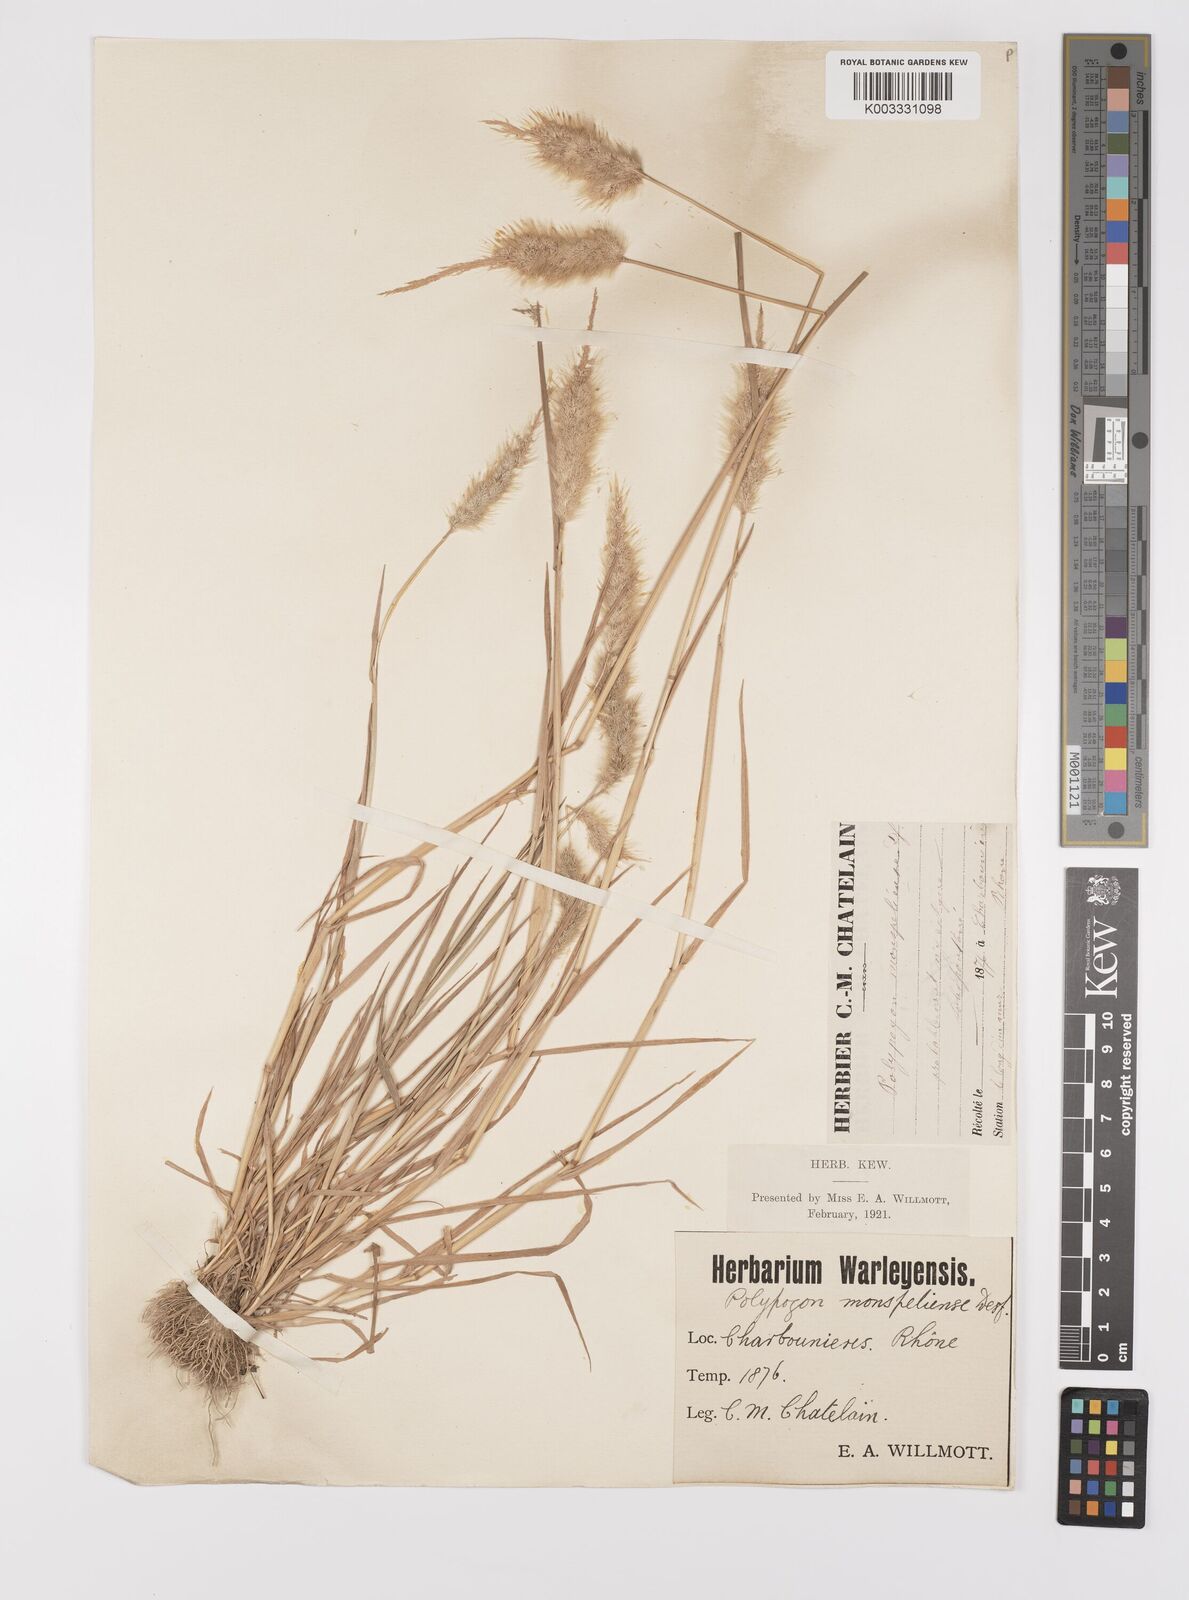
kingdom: Plantae
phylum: Tracheophyta
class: Liliopsida
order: Poales
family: Poaceae
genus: Polypogon
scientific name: Polypogon monspeliensis
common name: Annual rabbitsfoot grass
